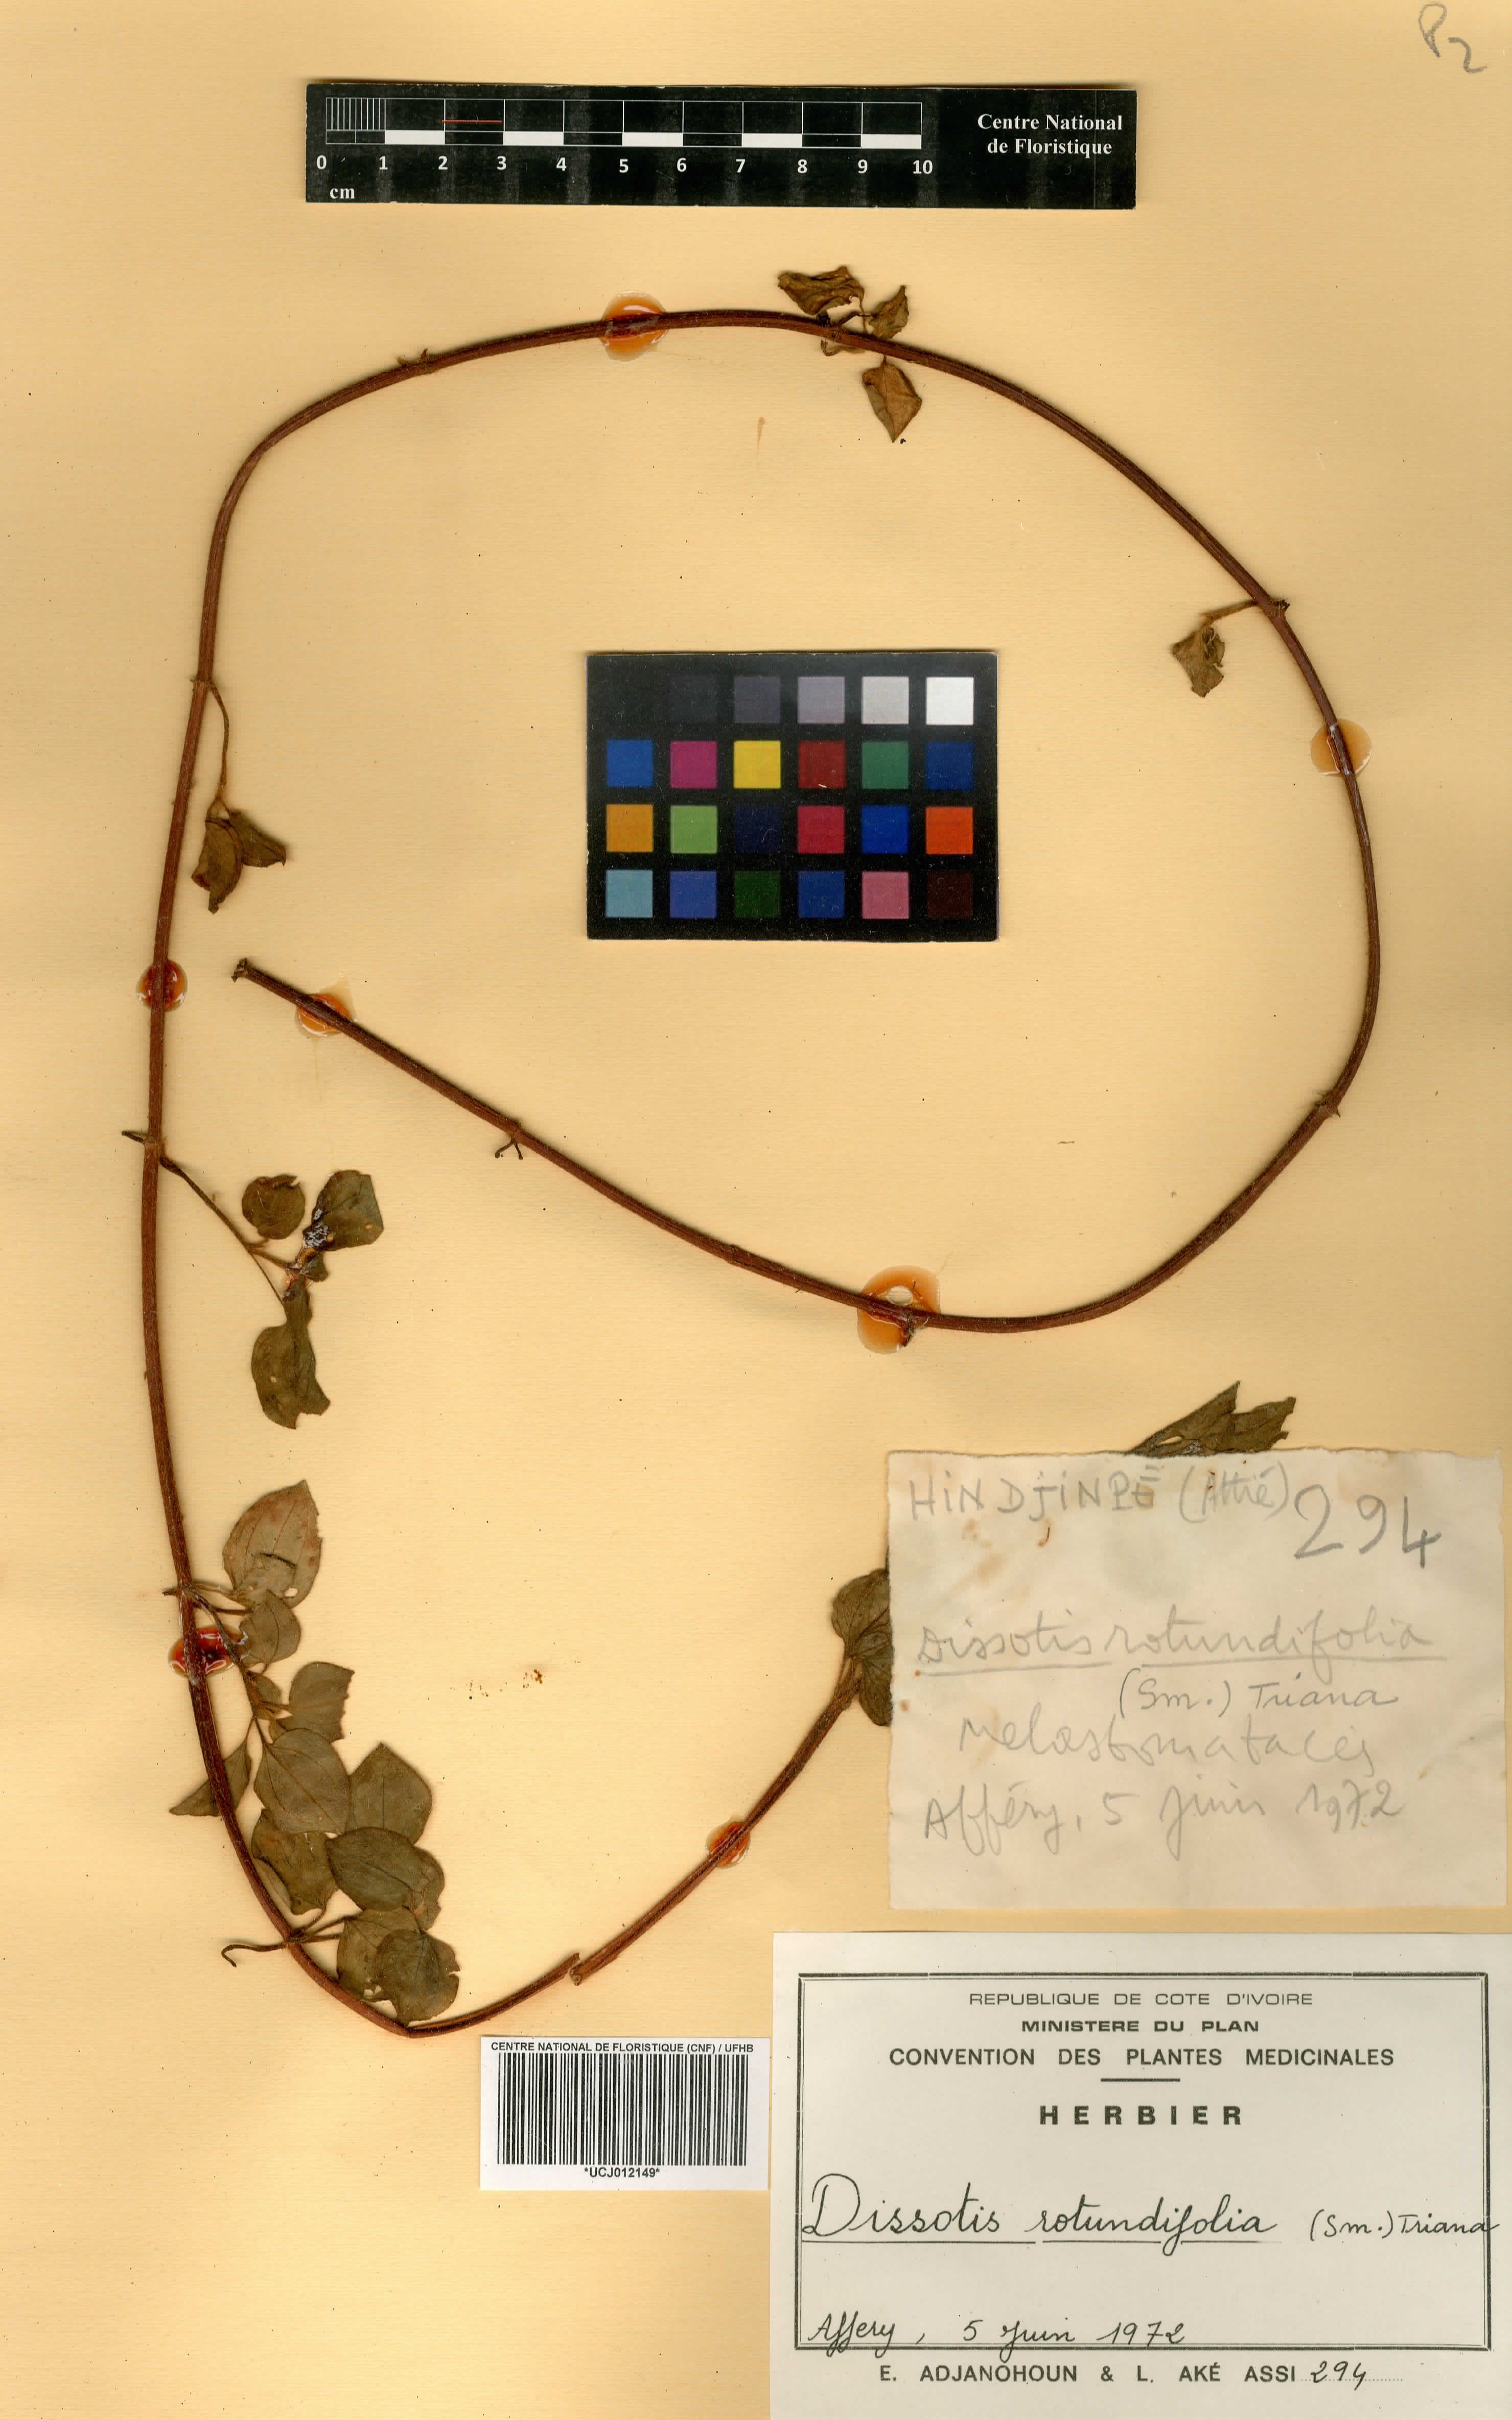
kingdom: Plantae
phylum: Tracheophyta
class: Magnoliopsida
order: Myrtales
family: Melastomataceae
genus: Heterotis
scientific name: Heterotis rotundifolia
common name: Pinklady
